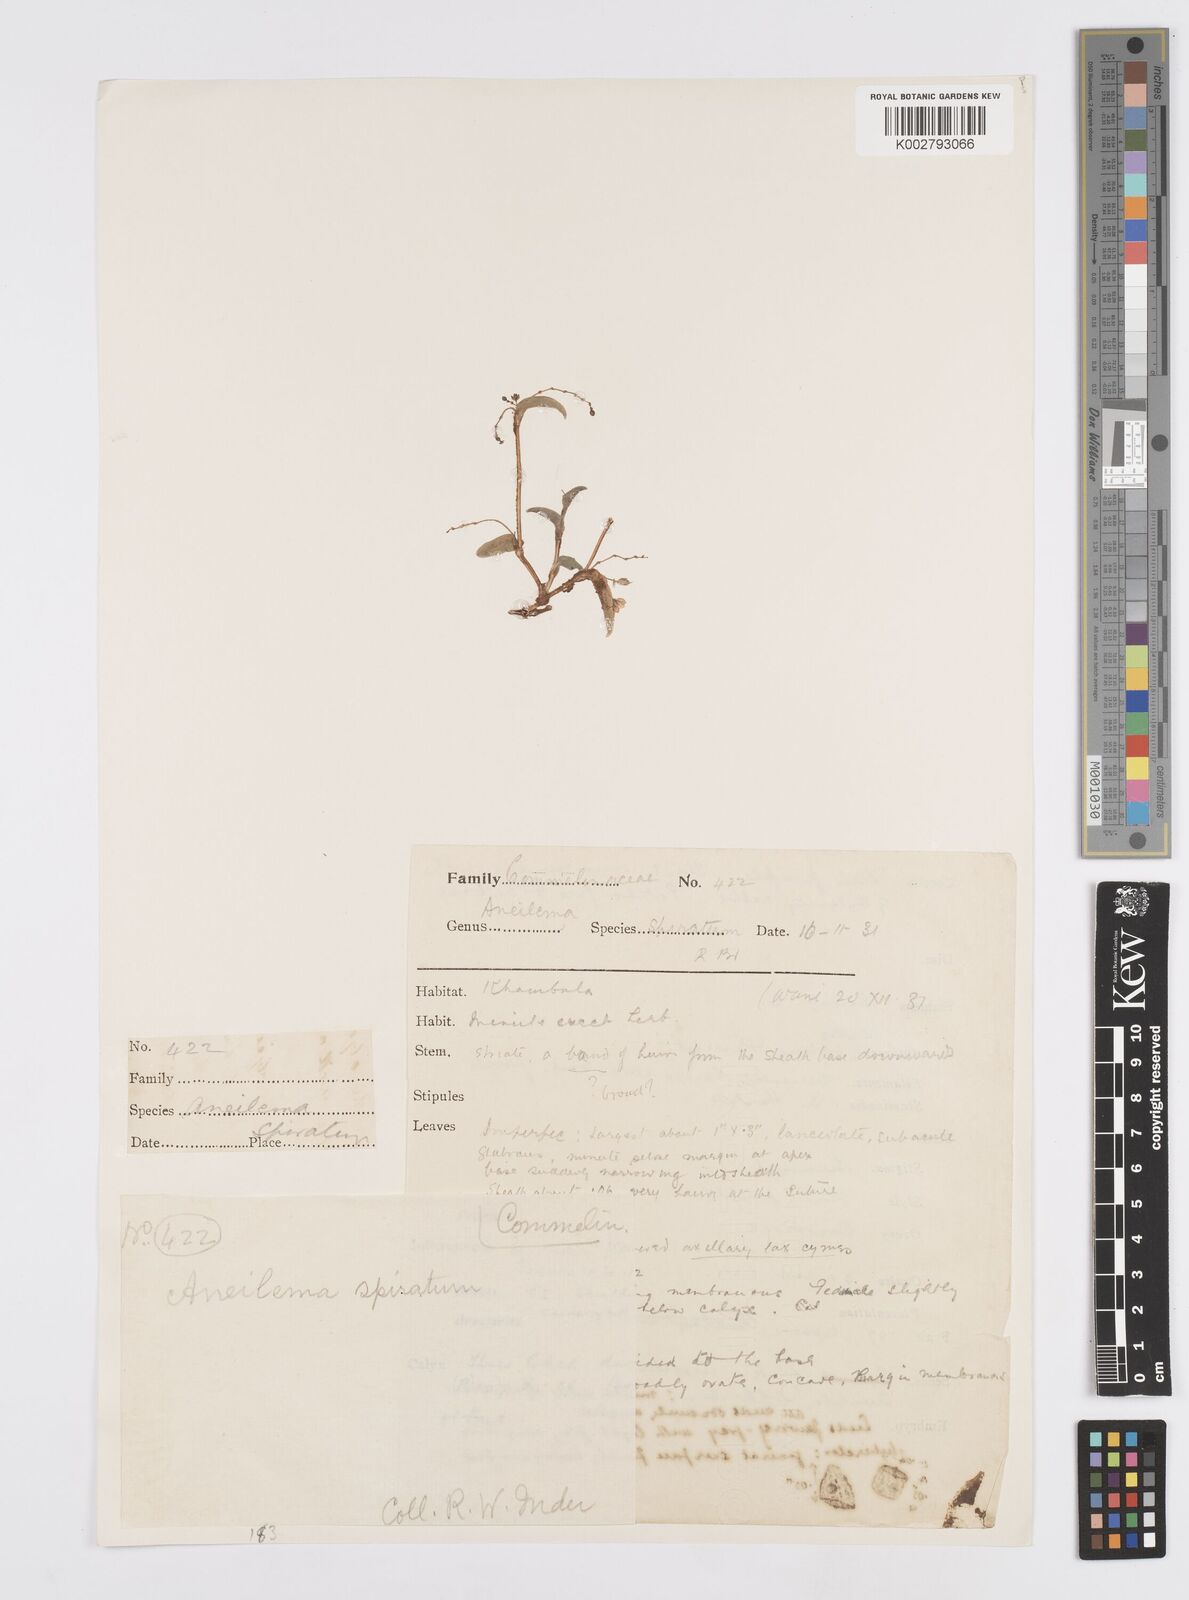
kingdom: Plantae
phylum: Tracheophyta
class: Liliopsida
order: Commelinales
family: Commelinaceae
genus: Murdannia
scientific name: Murdannia spirata
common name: Asiatic dewflower
